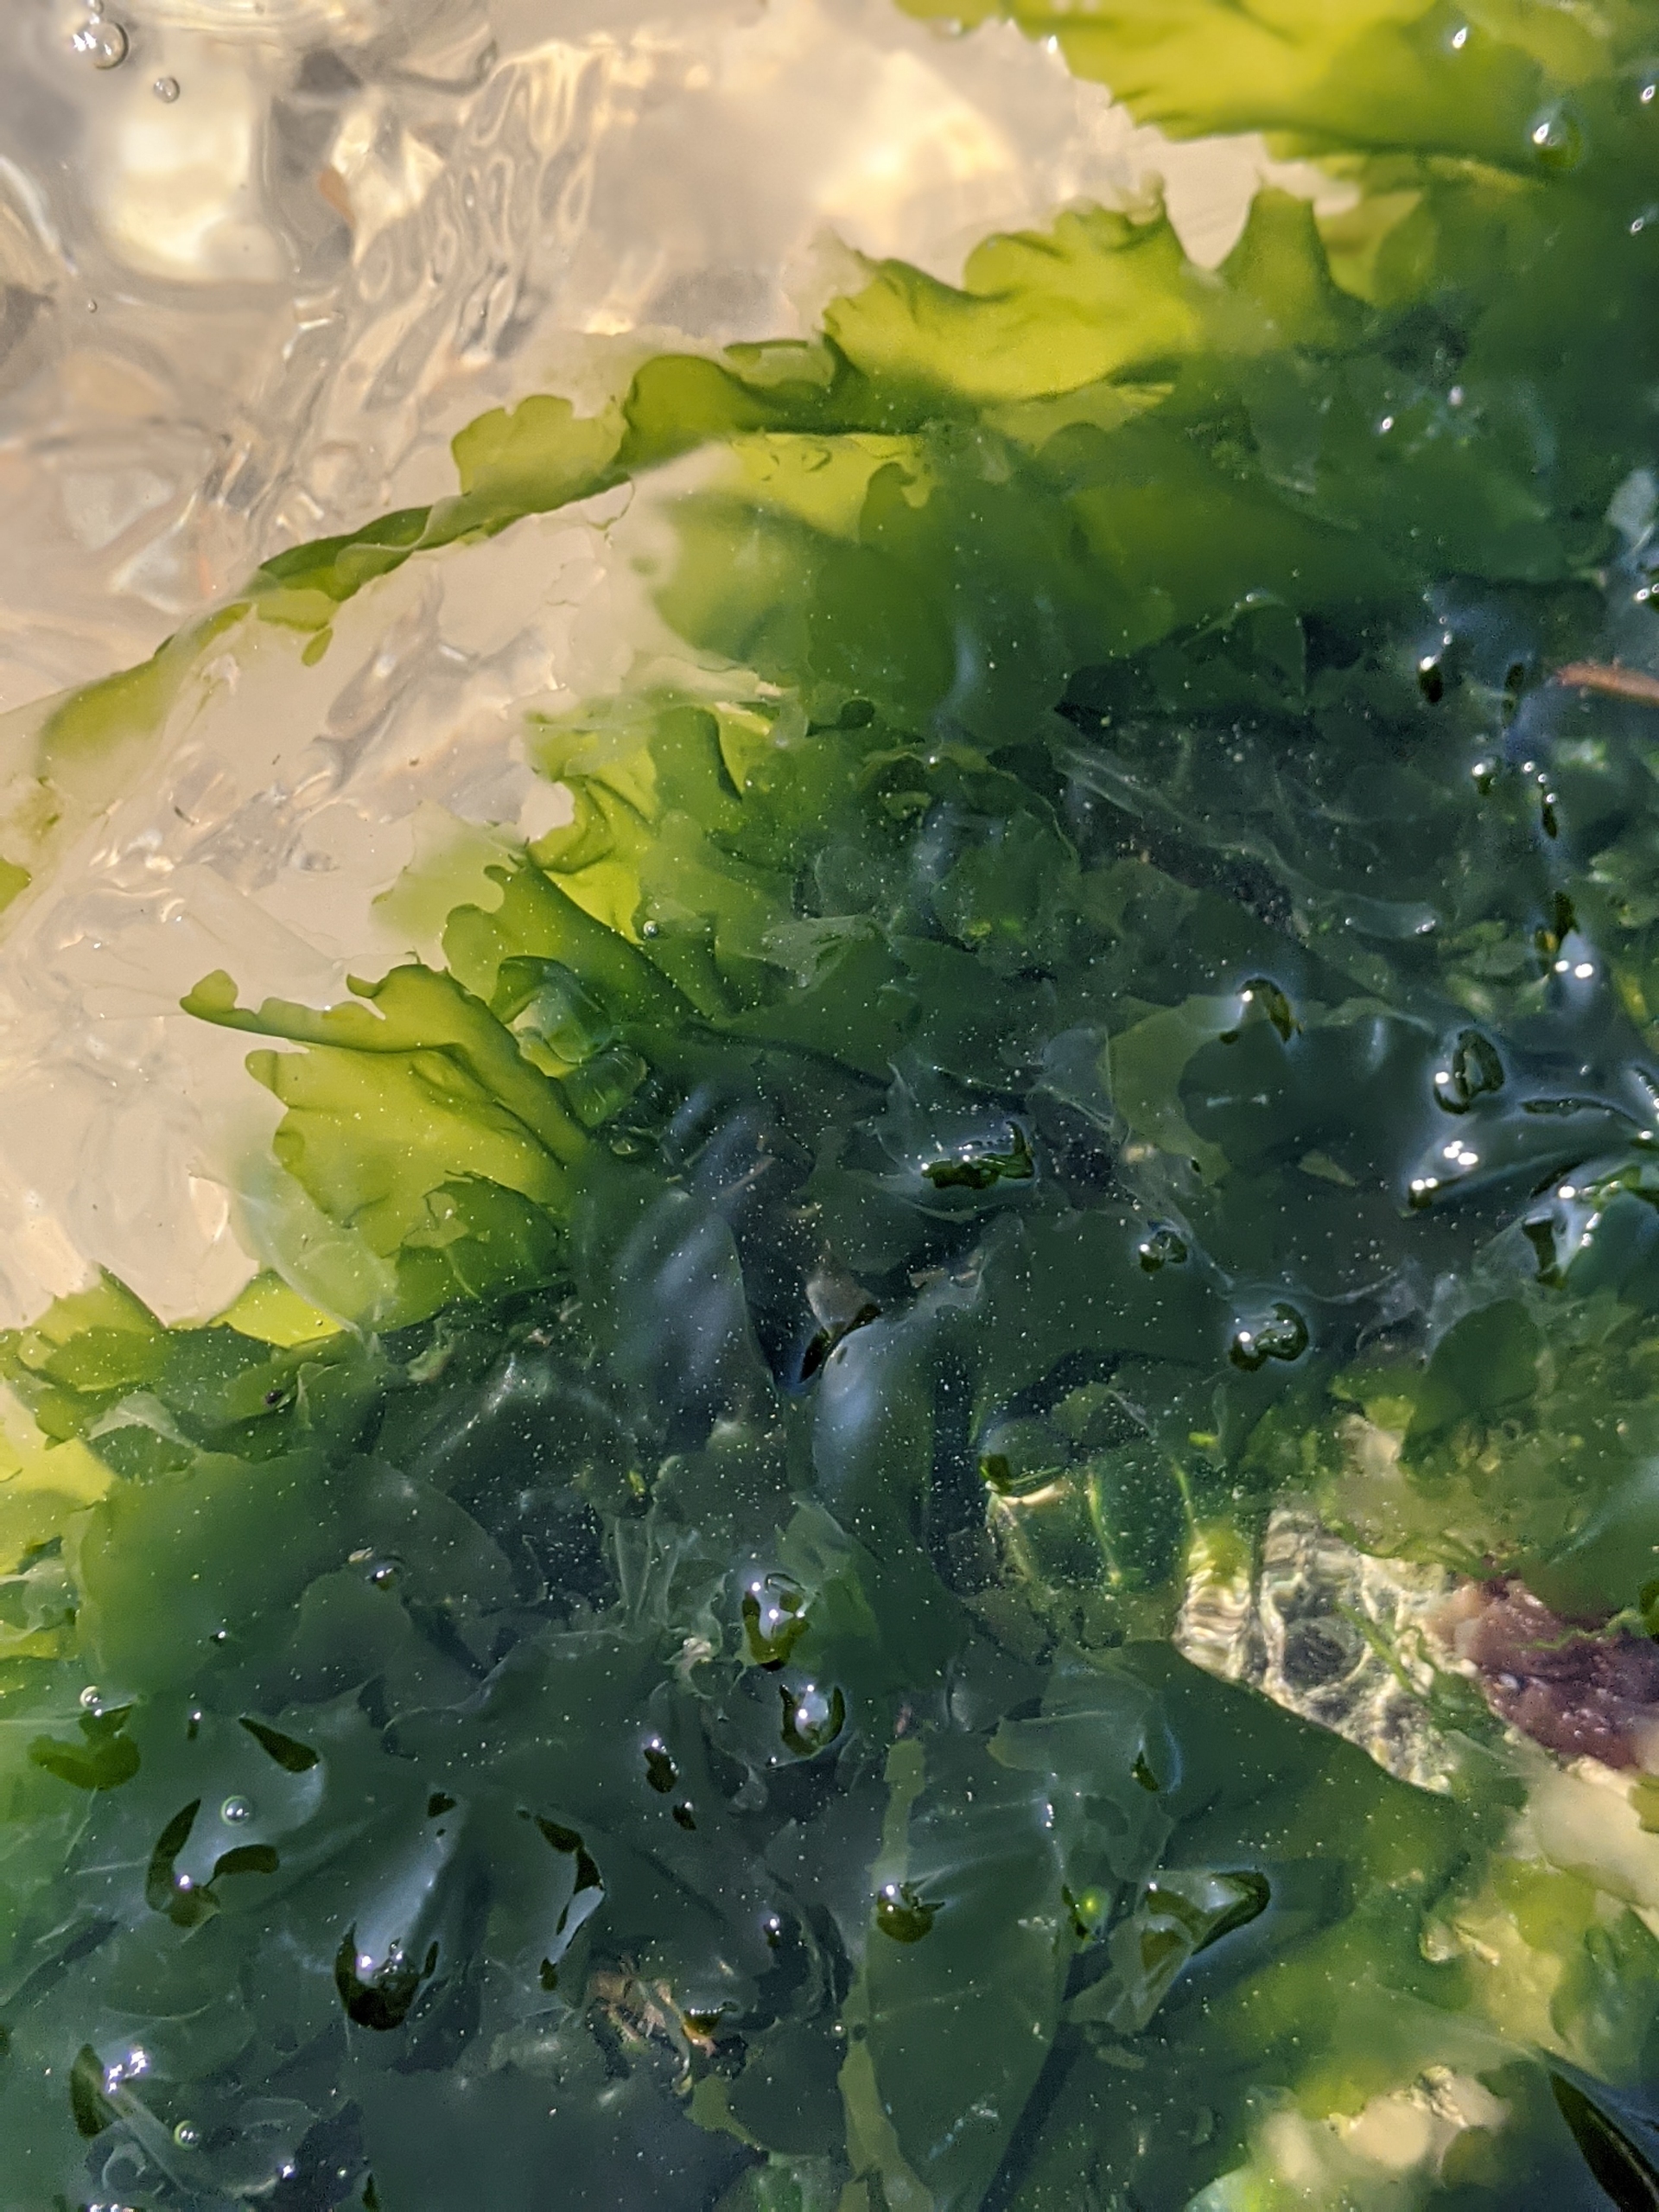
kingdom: Plantae
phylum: Chlorophyta
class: Ulvophyceae
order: Ulvales
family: Ulvaceae
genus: Ulva
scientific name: Ulva fenestrata
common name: Søsalat
